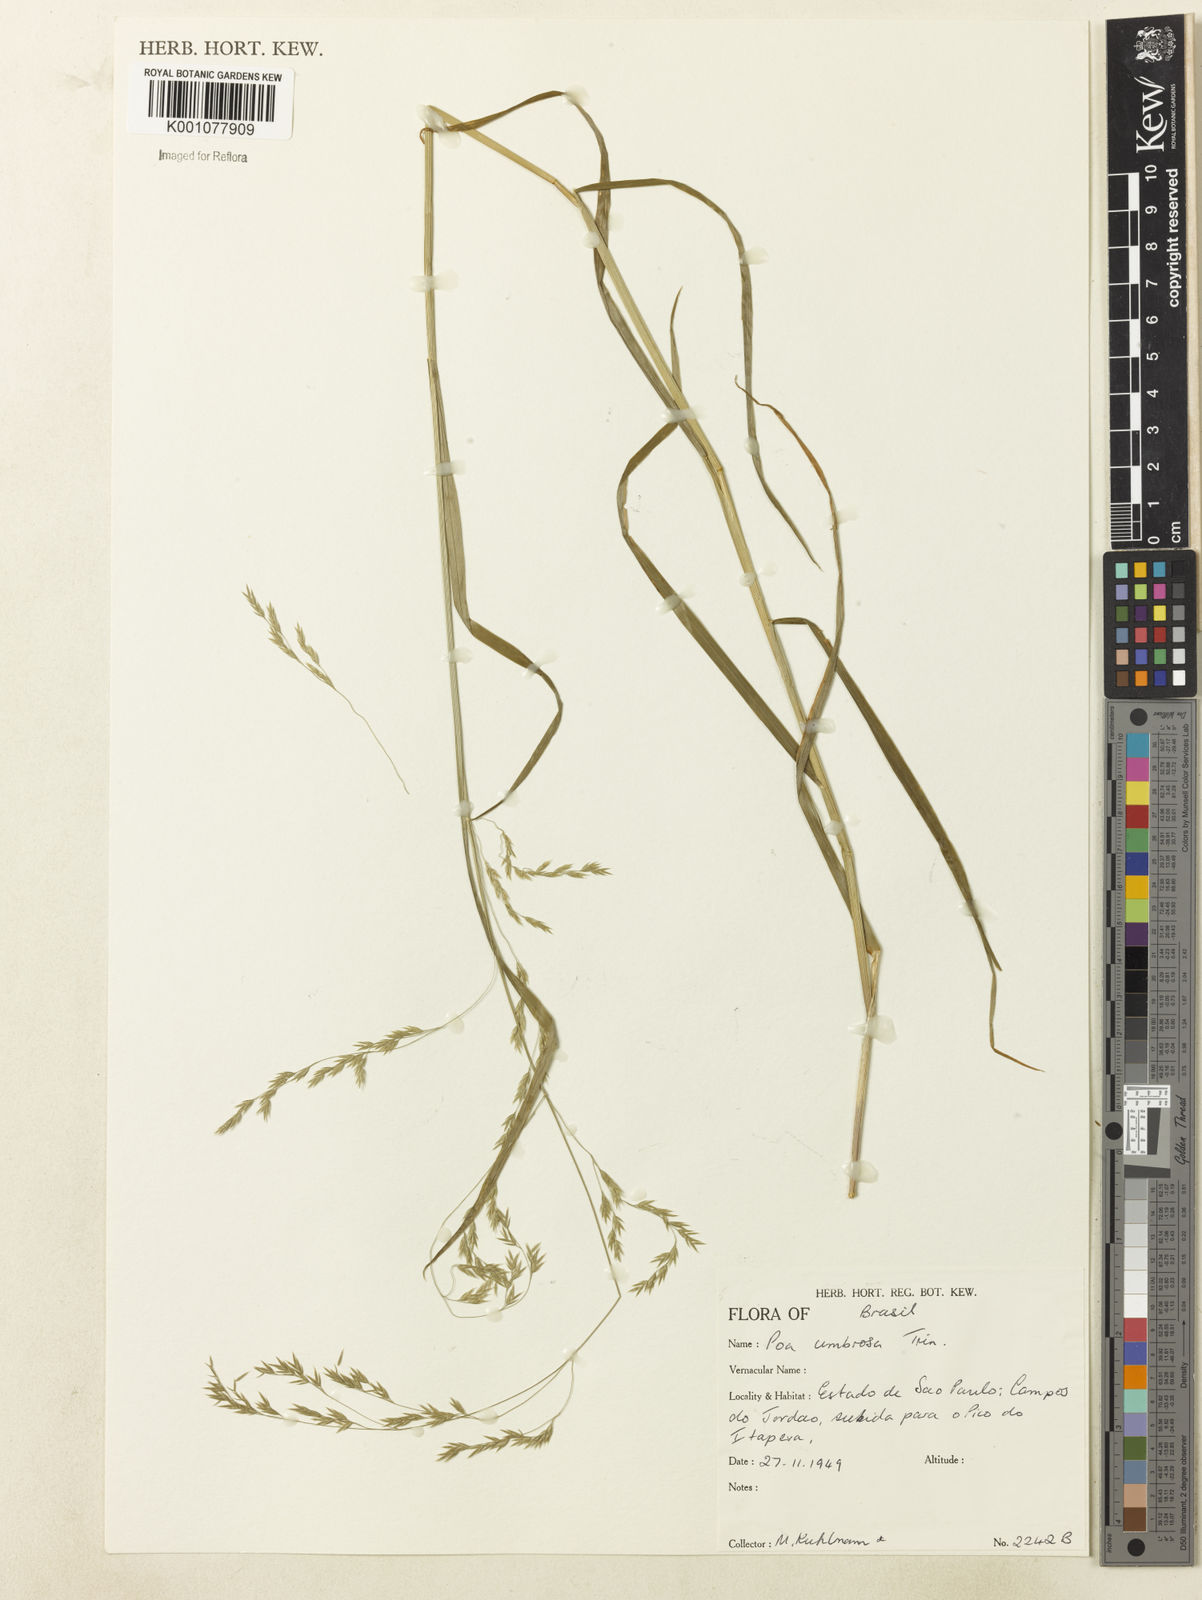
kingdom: Plantae
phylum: Tracheophyta
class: Liliopsida
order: Poales
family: Poaceae
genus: Poa
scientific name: Poa umbrosa
